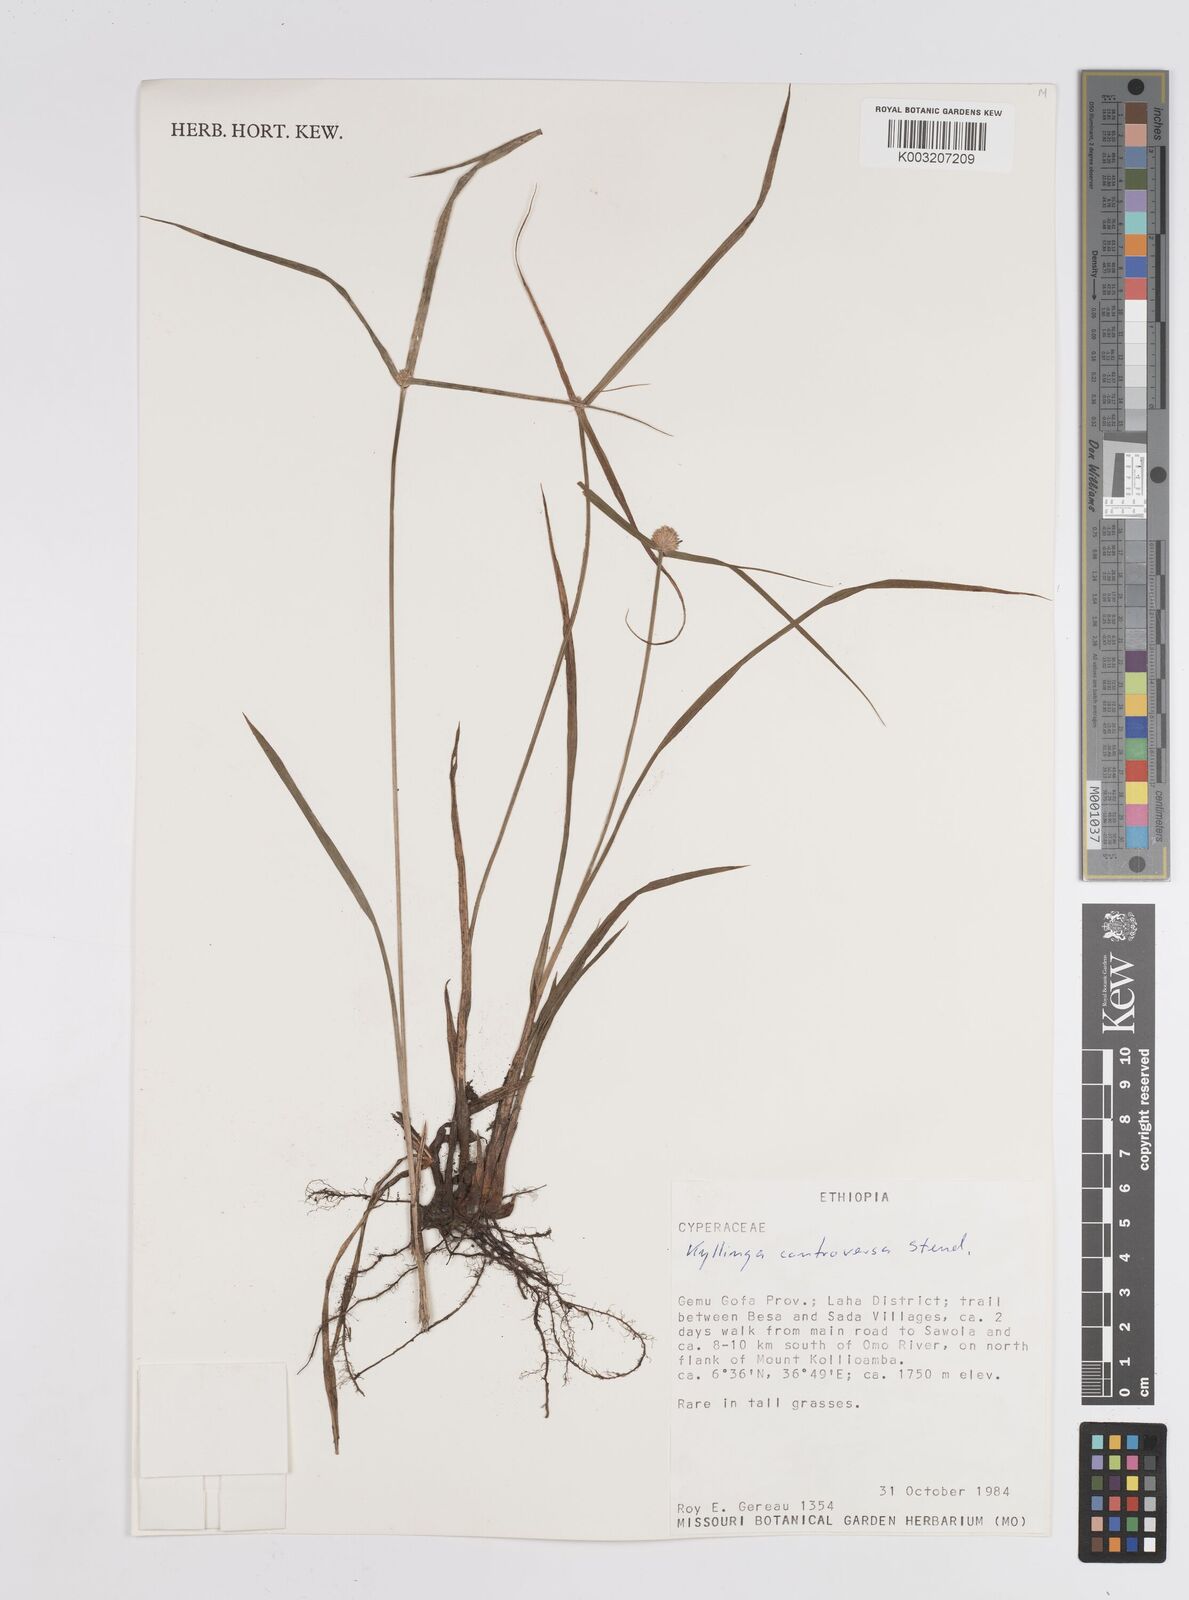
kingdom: Plantae
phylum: Tracheophyta
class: Liliopsida
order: Poales
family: Cyperaceae
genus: Cyperus
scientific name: Cyperus controversus
